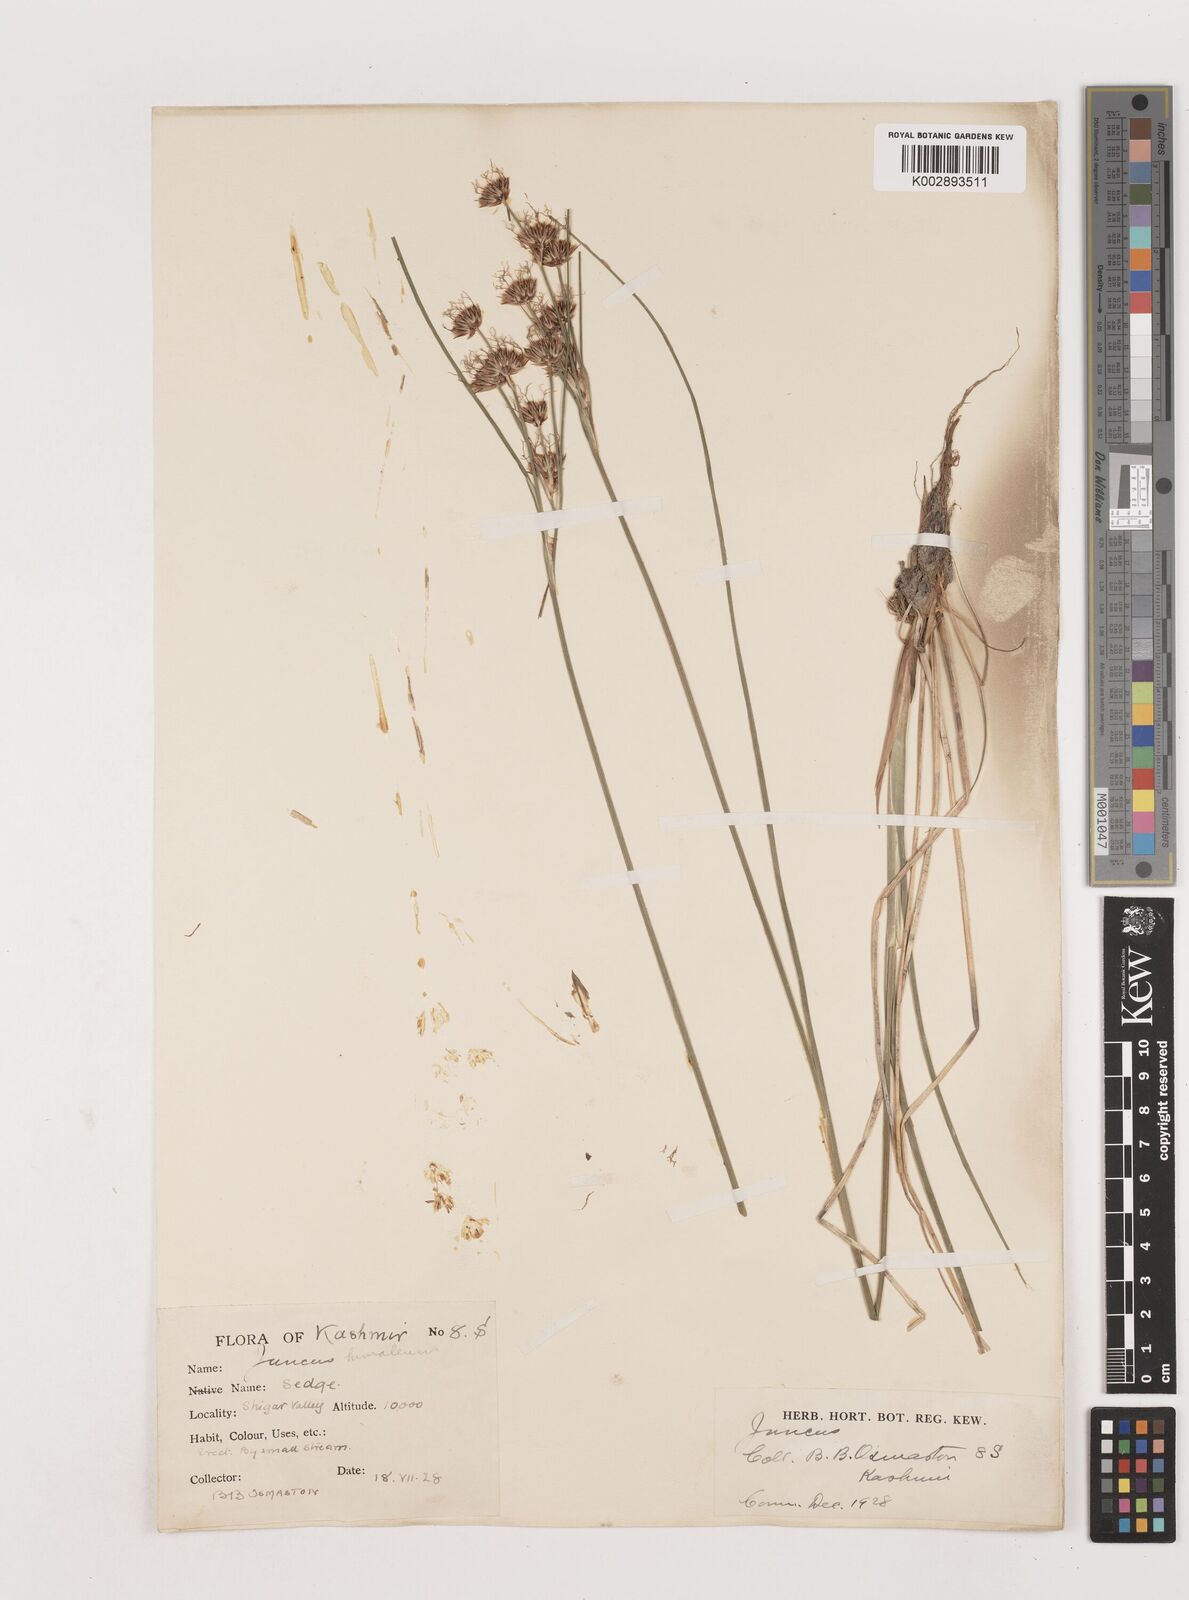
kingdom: Plantae
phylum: Tracheophyta
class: Liliopsida
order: Poales
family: Juncaceae
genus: Juncus
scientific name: Juncus himalensis
